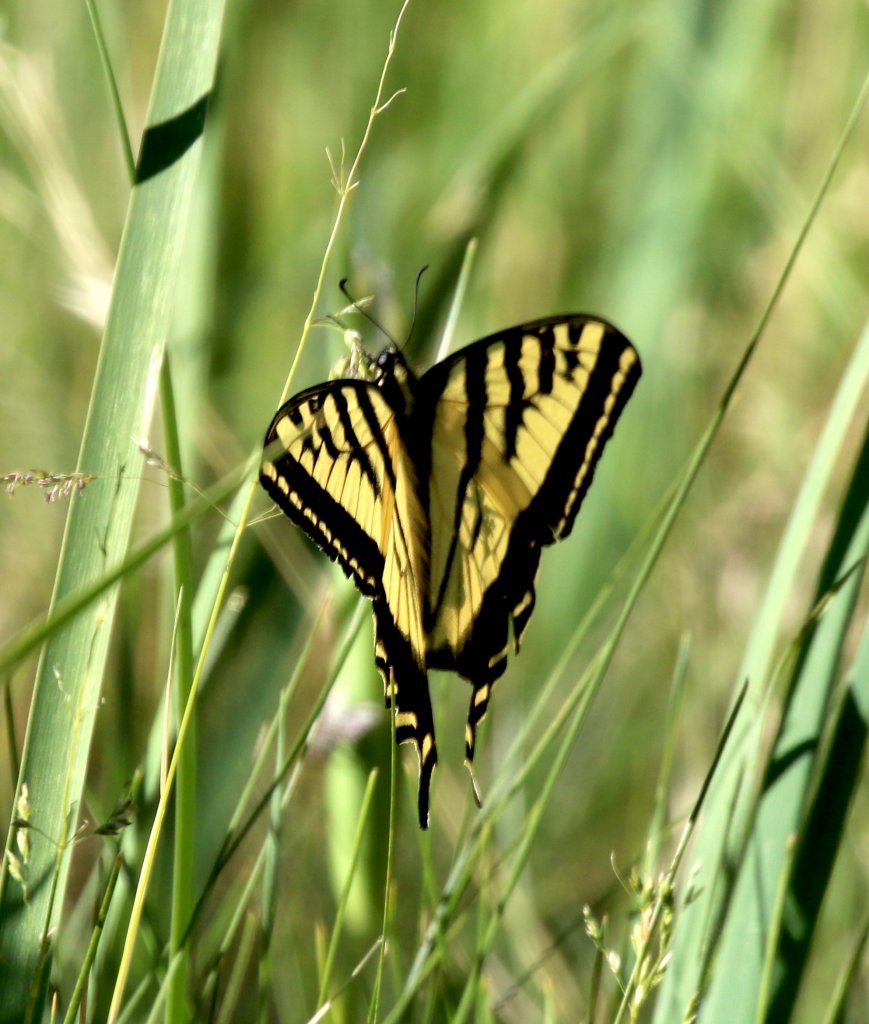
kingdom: Animalia
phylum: Arthropoda
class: Insecta
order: Lepidoptera
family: Papilionidae
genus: Pterourus
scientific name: Pterourus rutulus
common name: Western Tiger Swallowtail
